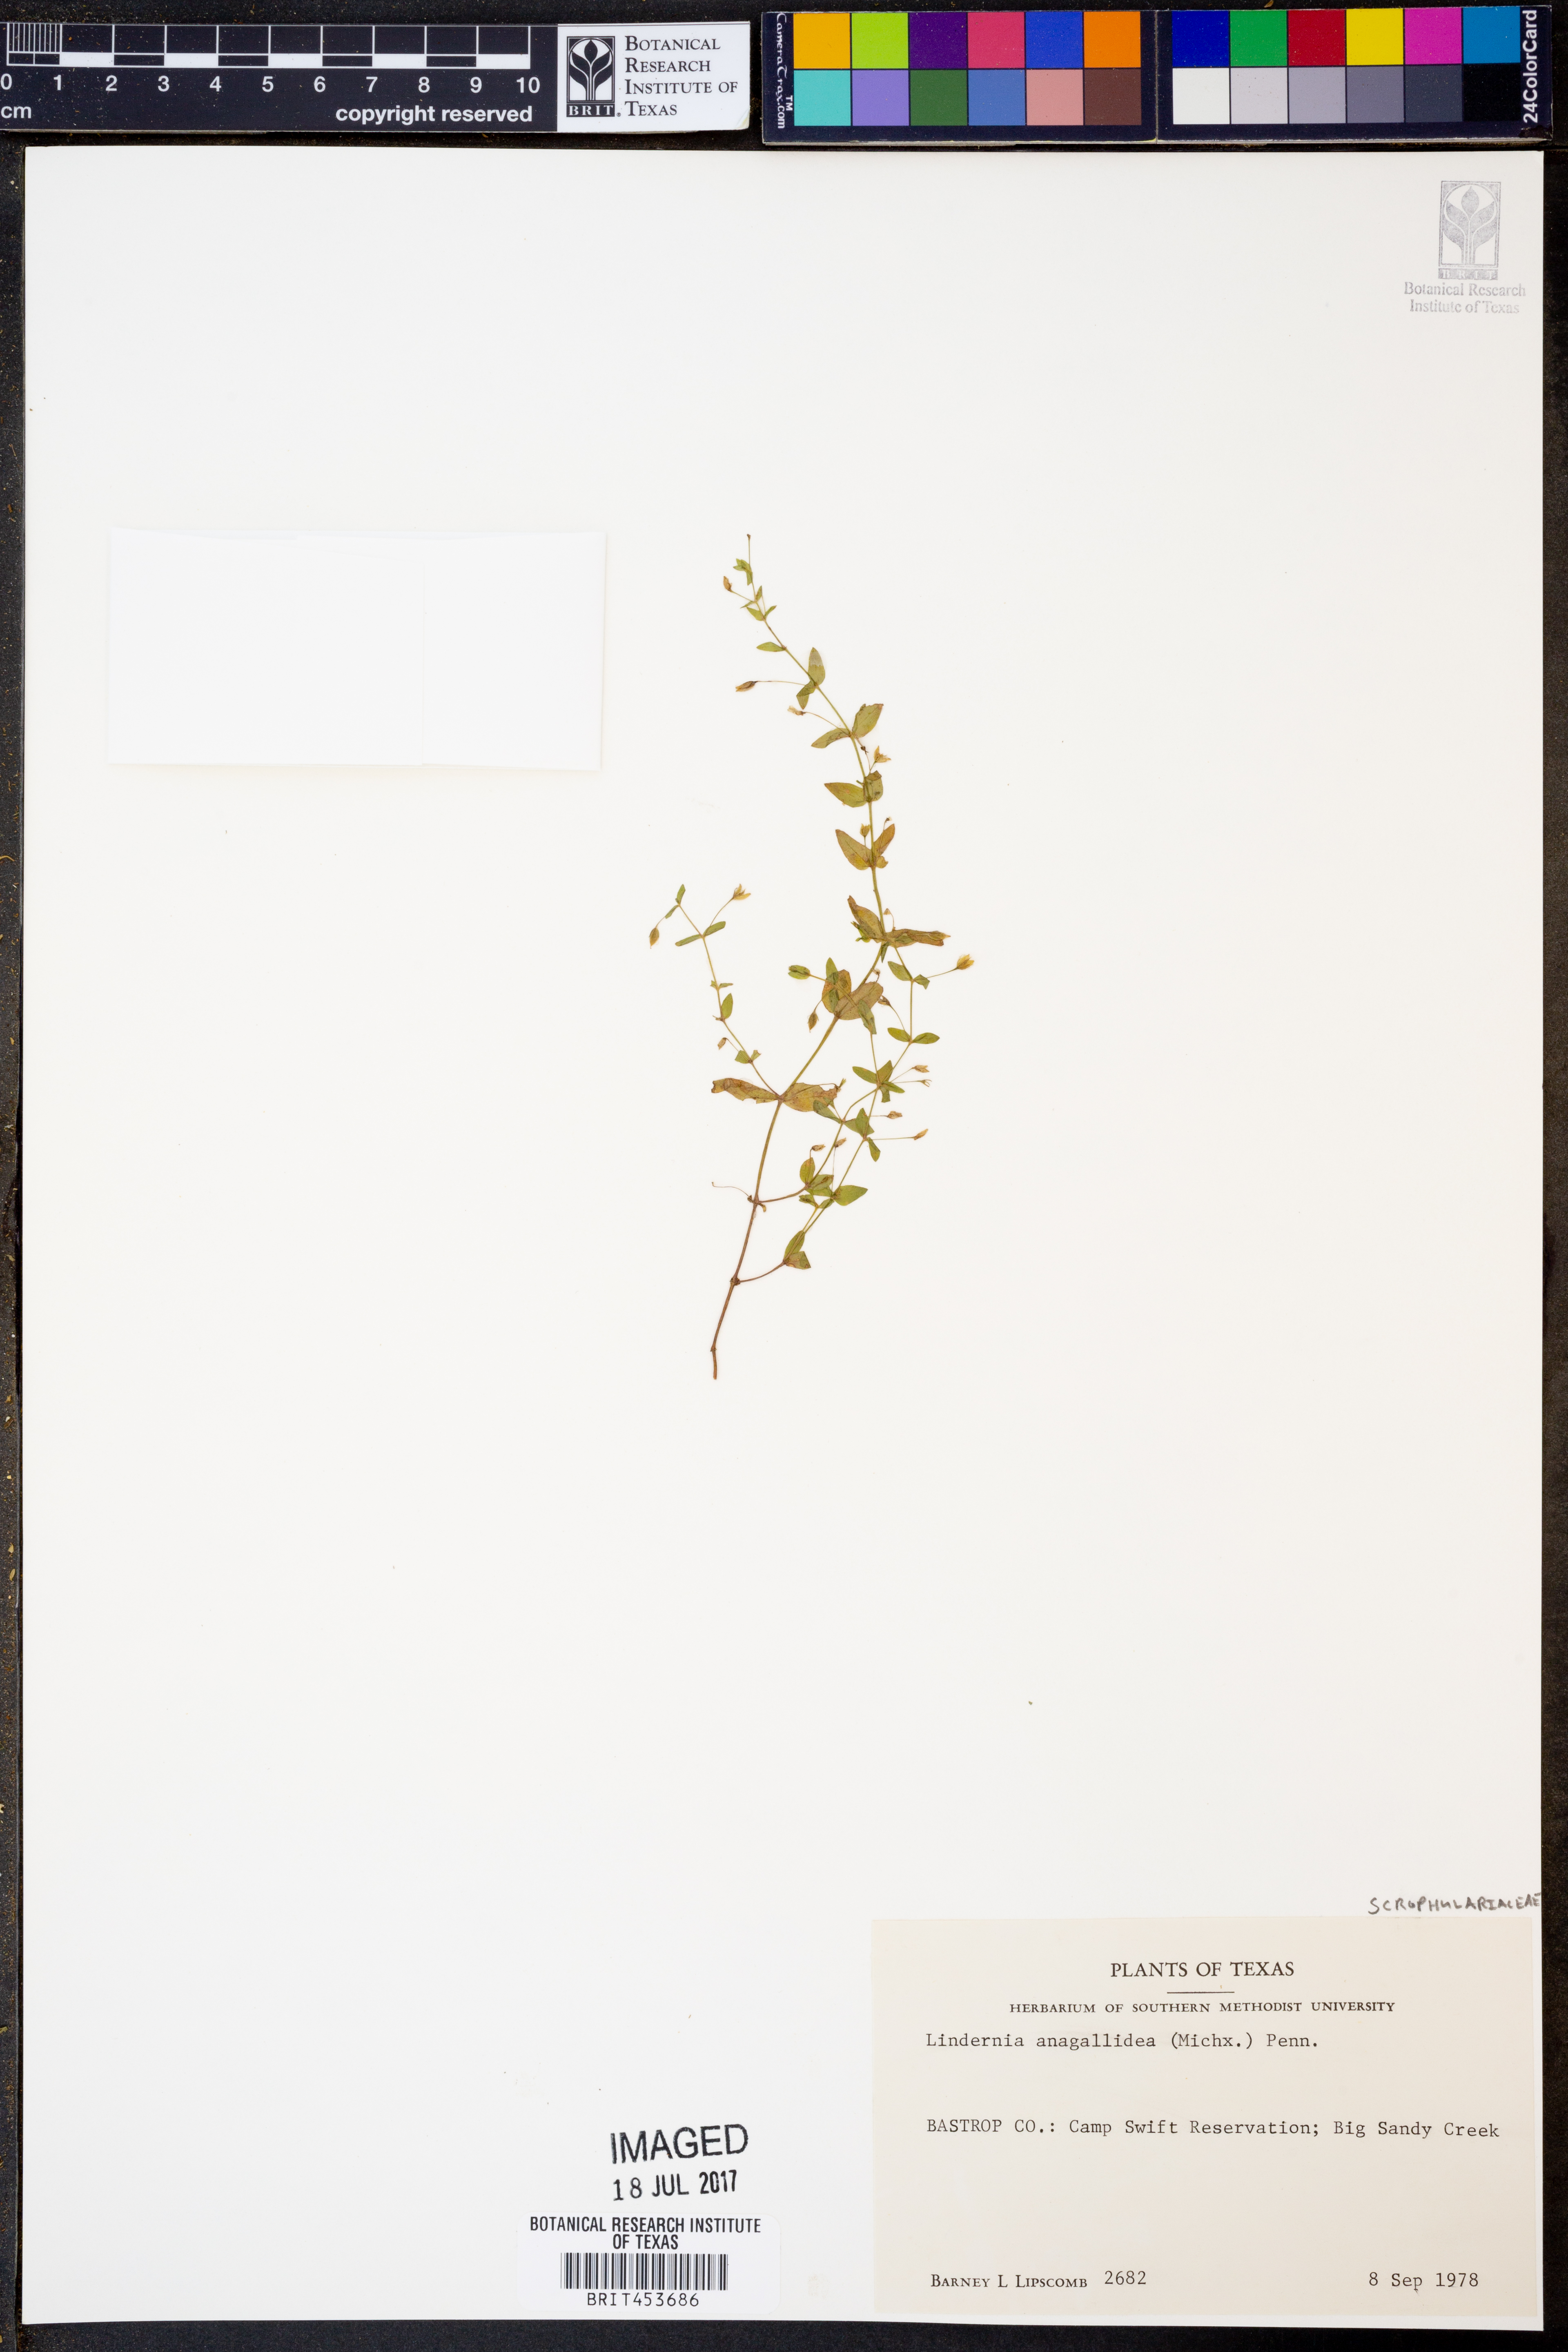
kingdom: Plantae
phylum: Tracheophyta
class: Magnoliopsida
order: Lamiales
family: Linderniaceae
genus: Lindernia
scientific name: Lindernia dubia
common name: Annual false pimpernel
